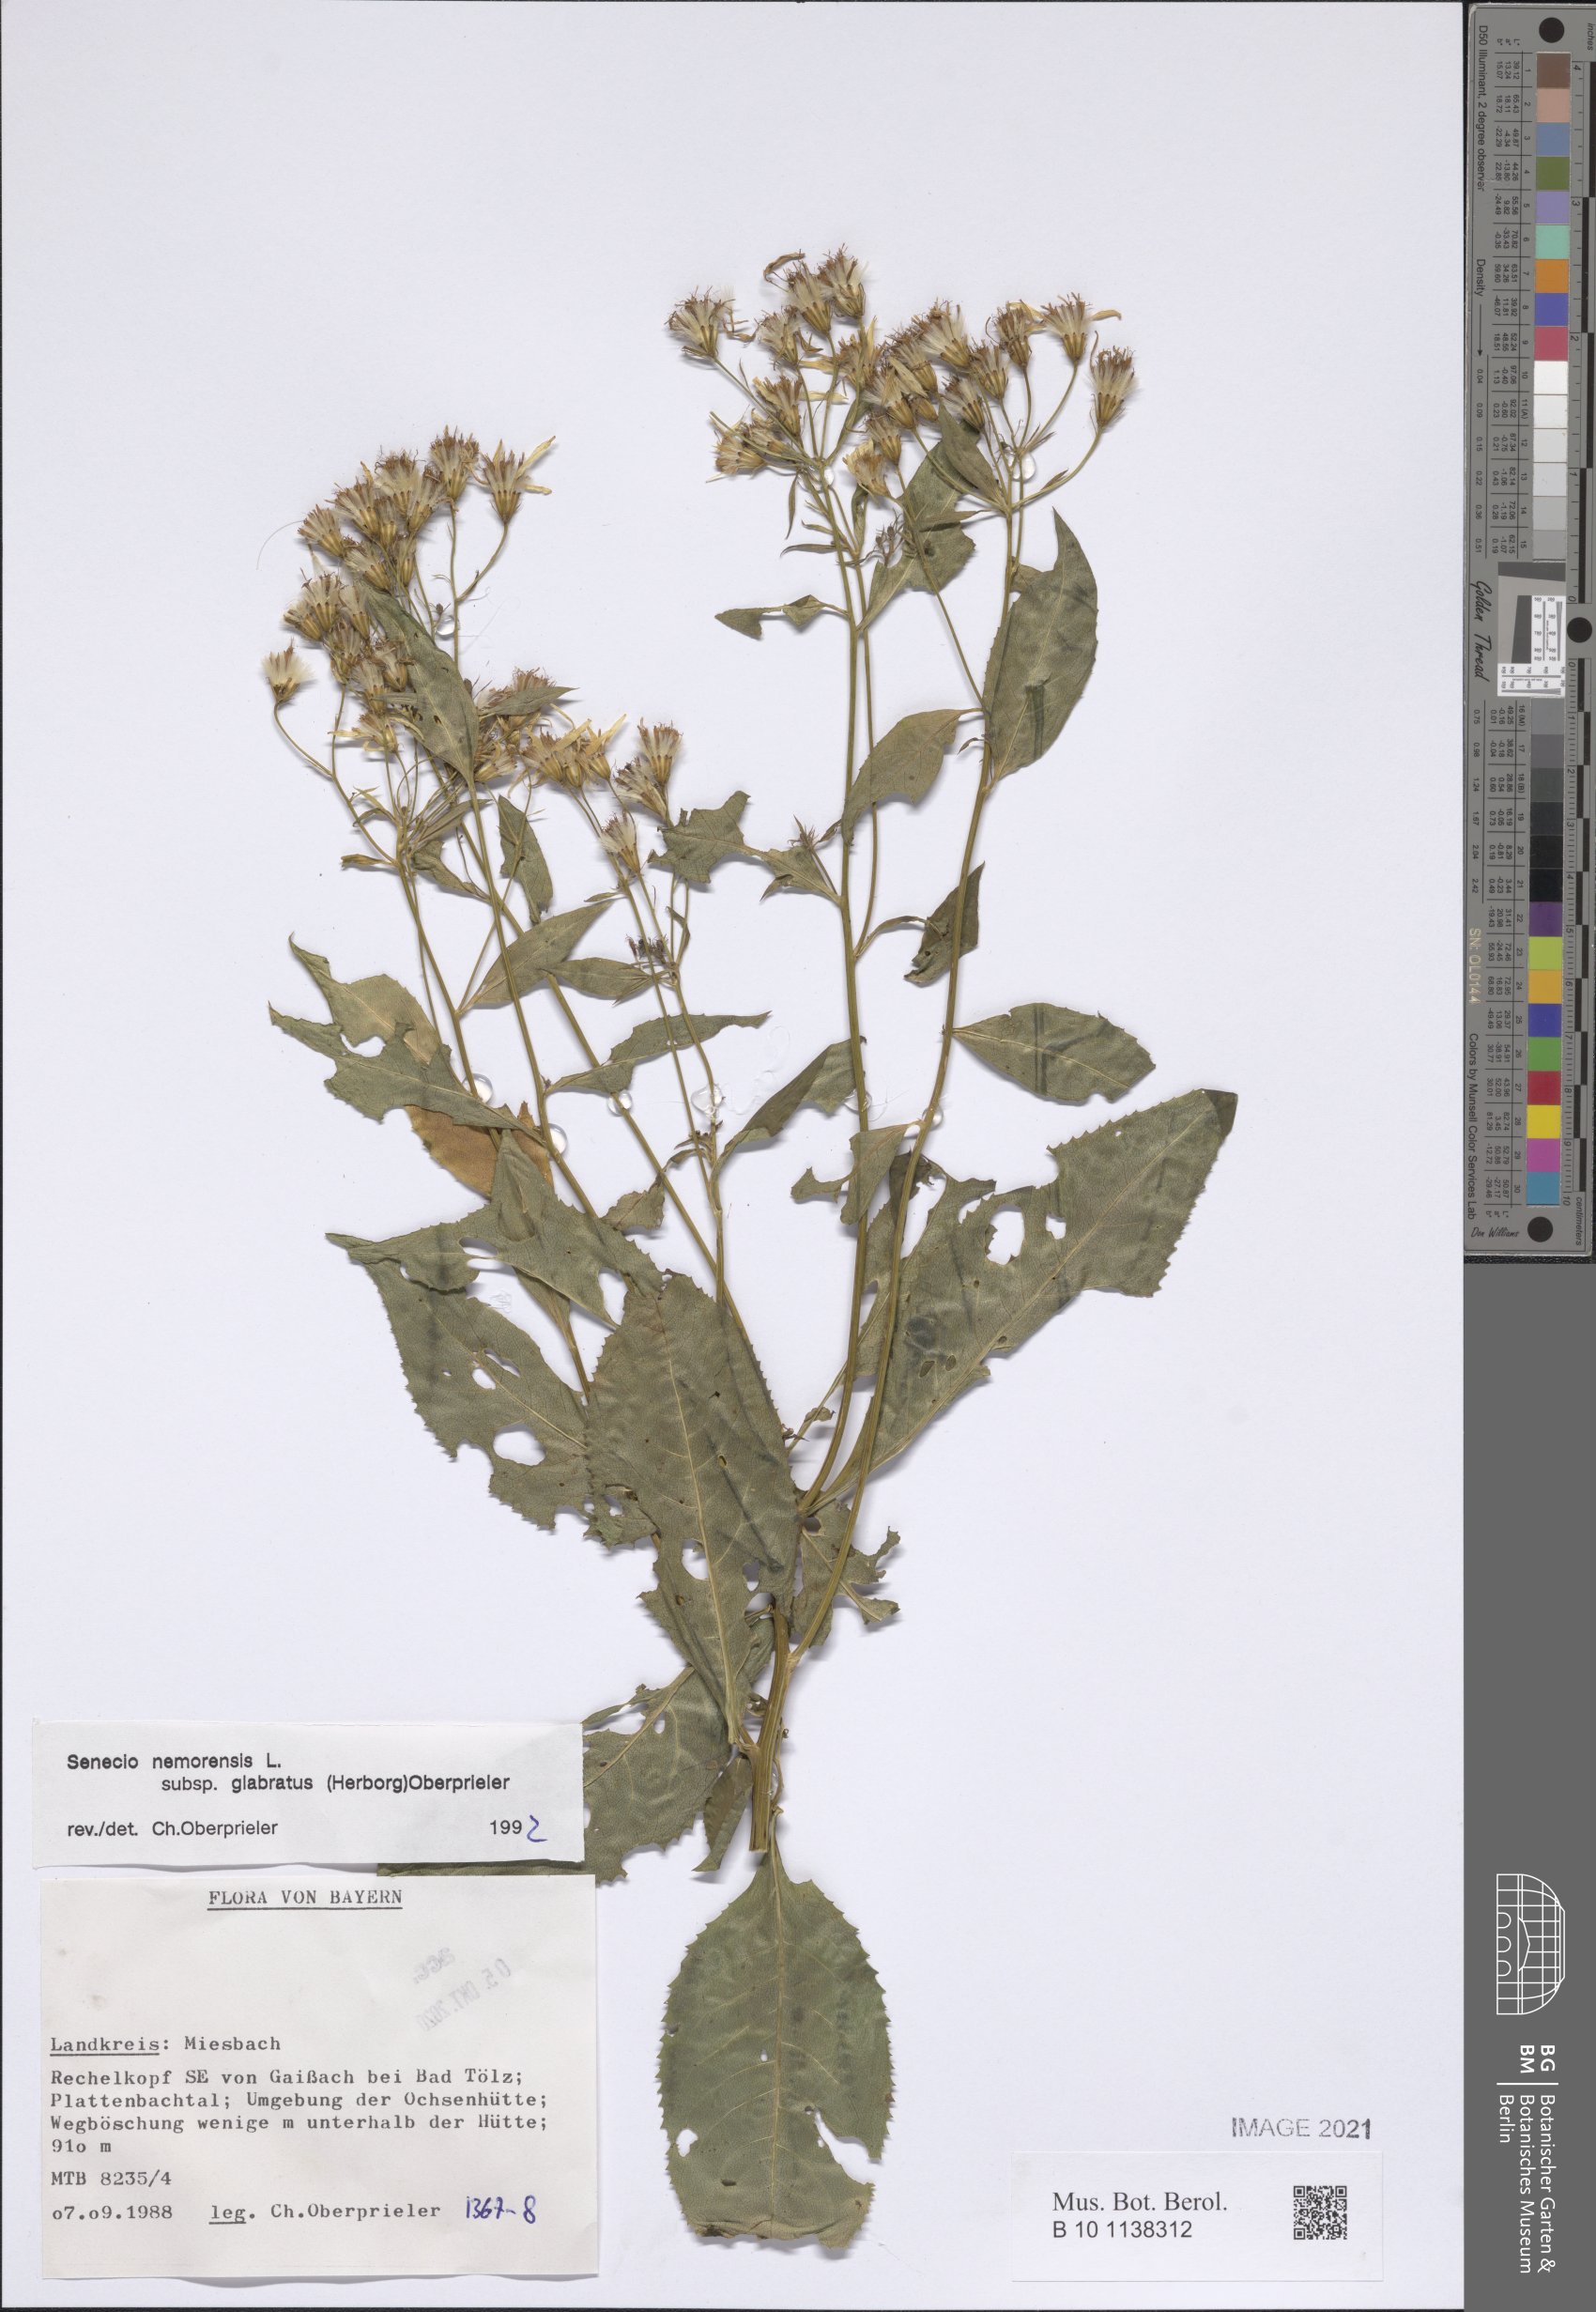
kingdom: Plantae
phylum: Tracheophyta
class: Magnoliopsida
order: Asterales
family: Asteraceae
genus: Senecio
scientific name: Senecio germanicus
